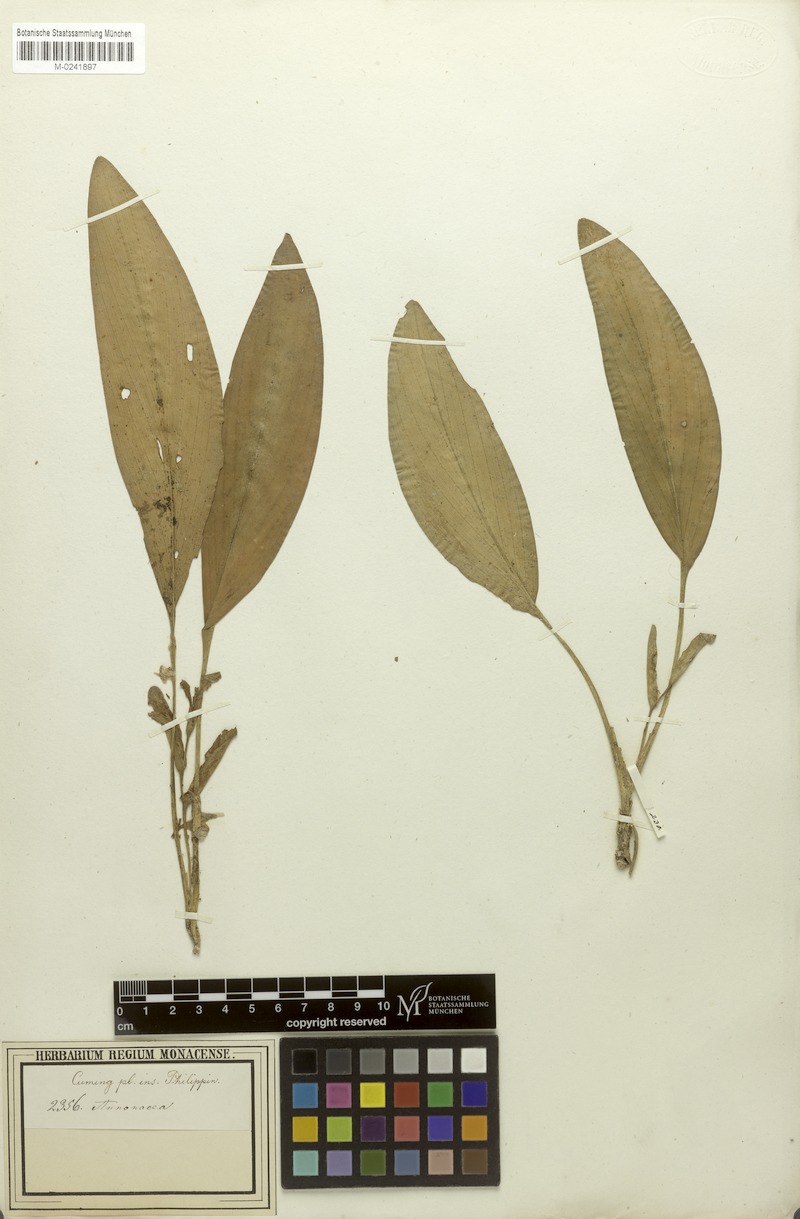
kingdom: Plantae
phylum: Tracheophyta
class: Liliopsida
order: Zingiberales
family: Zingiberaceae
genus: Scaphochlamys
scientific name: Scaphochlamys malaccana
